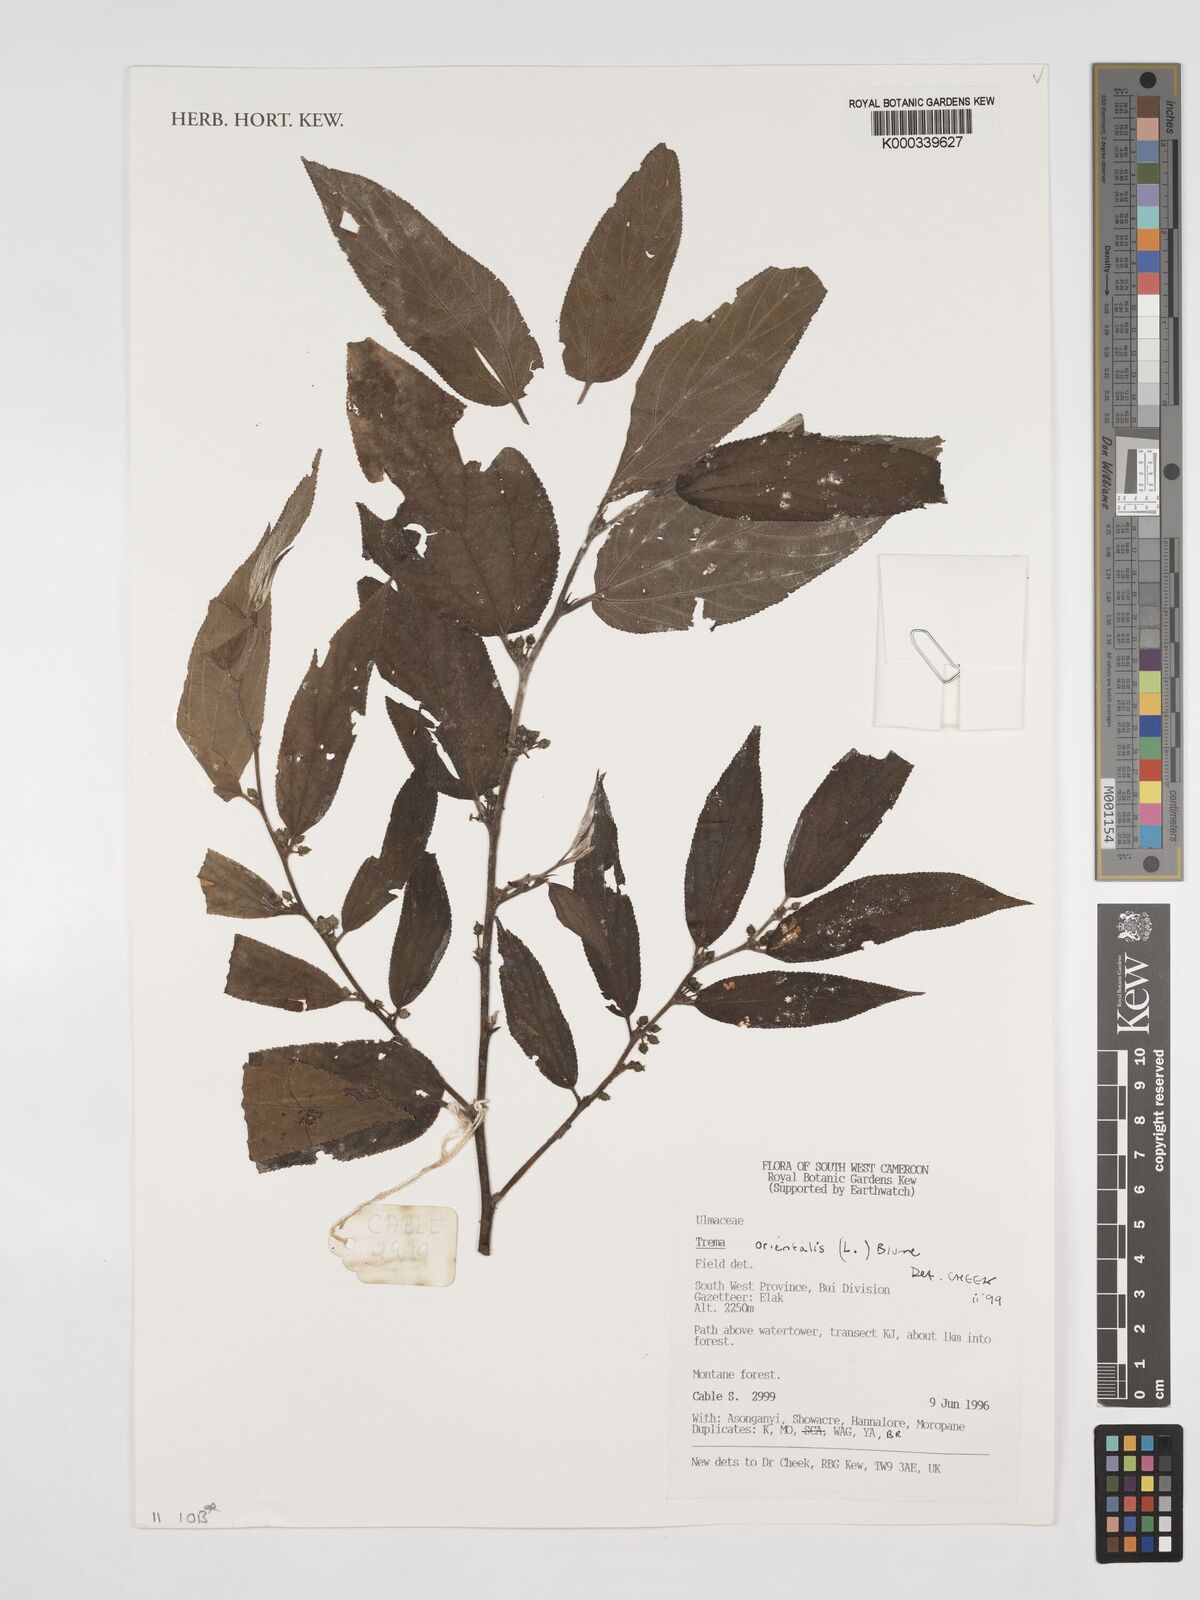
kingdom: Plantae
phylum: Tracheophyta
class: Magnoliopsida
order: Rosales
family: Cannabaceae
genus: Trema
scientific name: Trema
